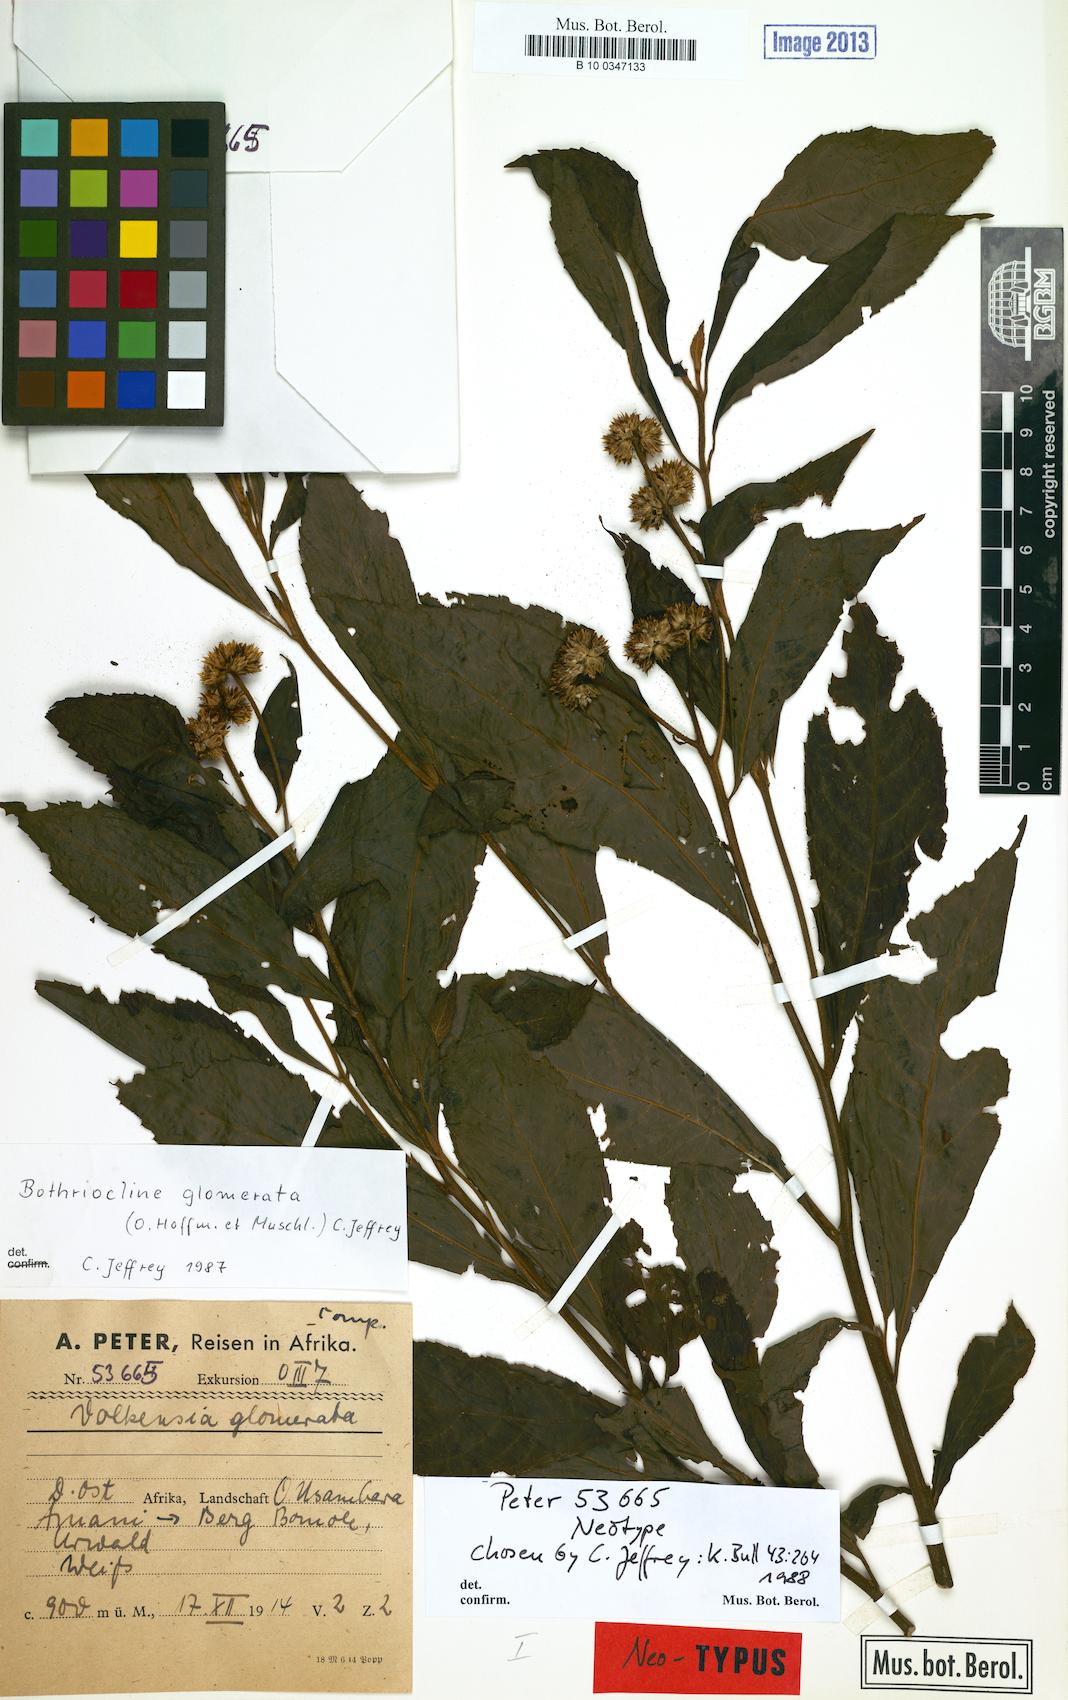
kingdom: Plantae
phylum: Tracheophyta
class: Magnoliopsida
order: Asterales
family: Asteraceae
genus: Bothriocline
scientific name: Bothriocline glomerata
